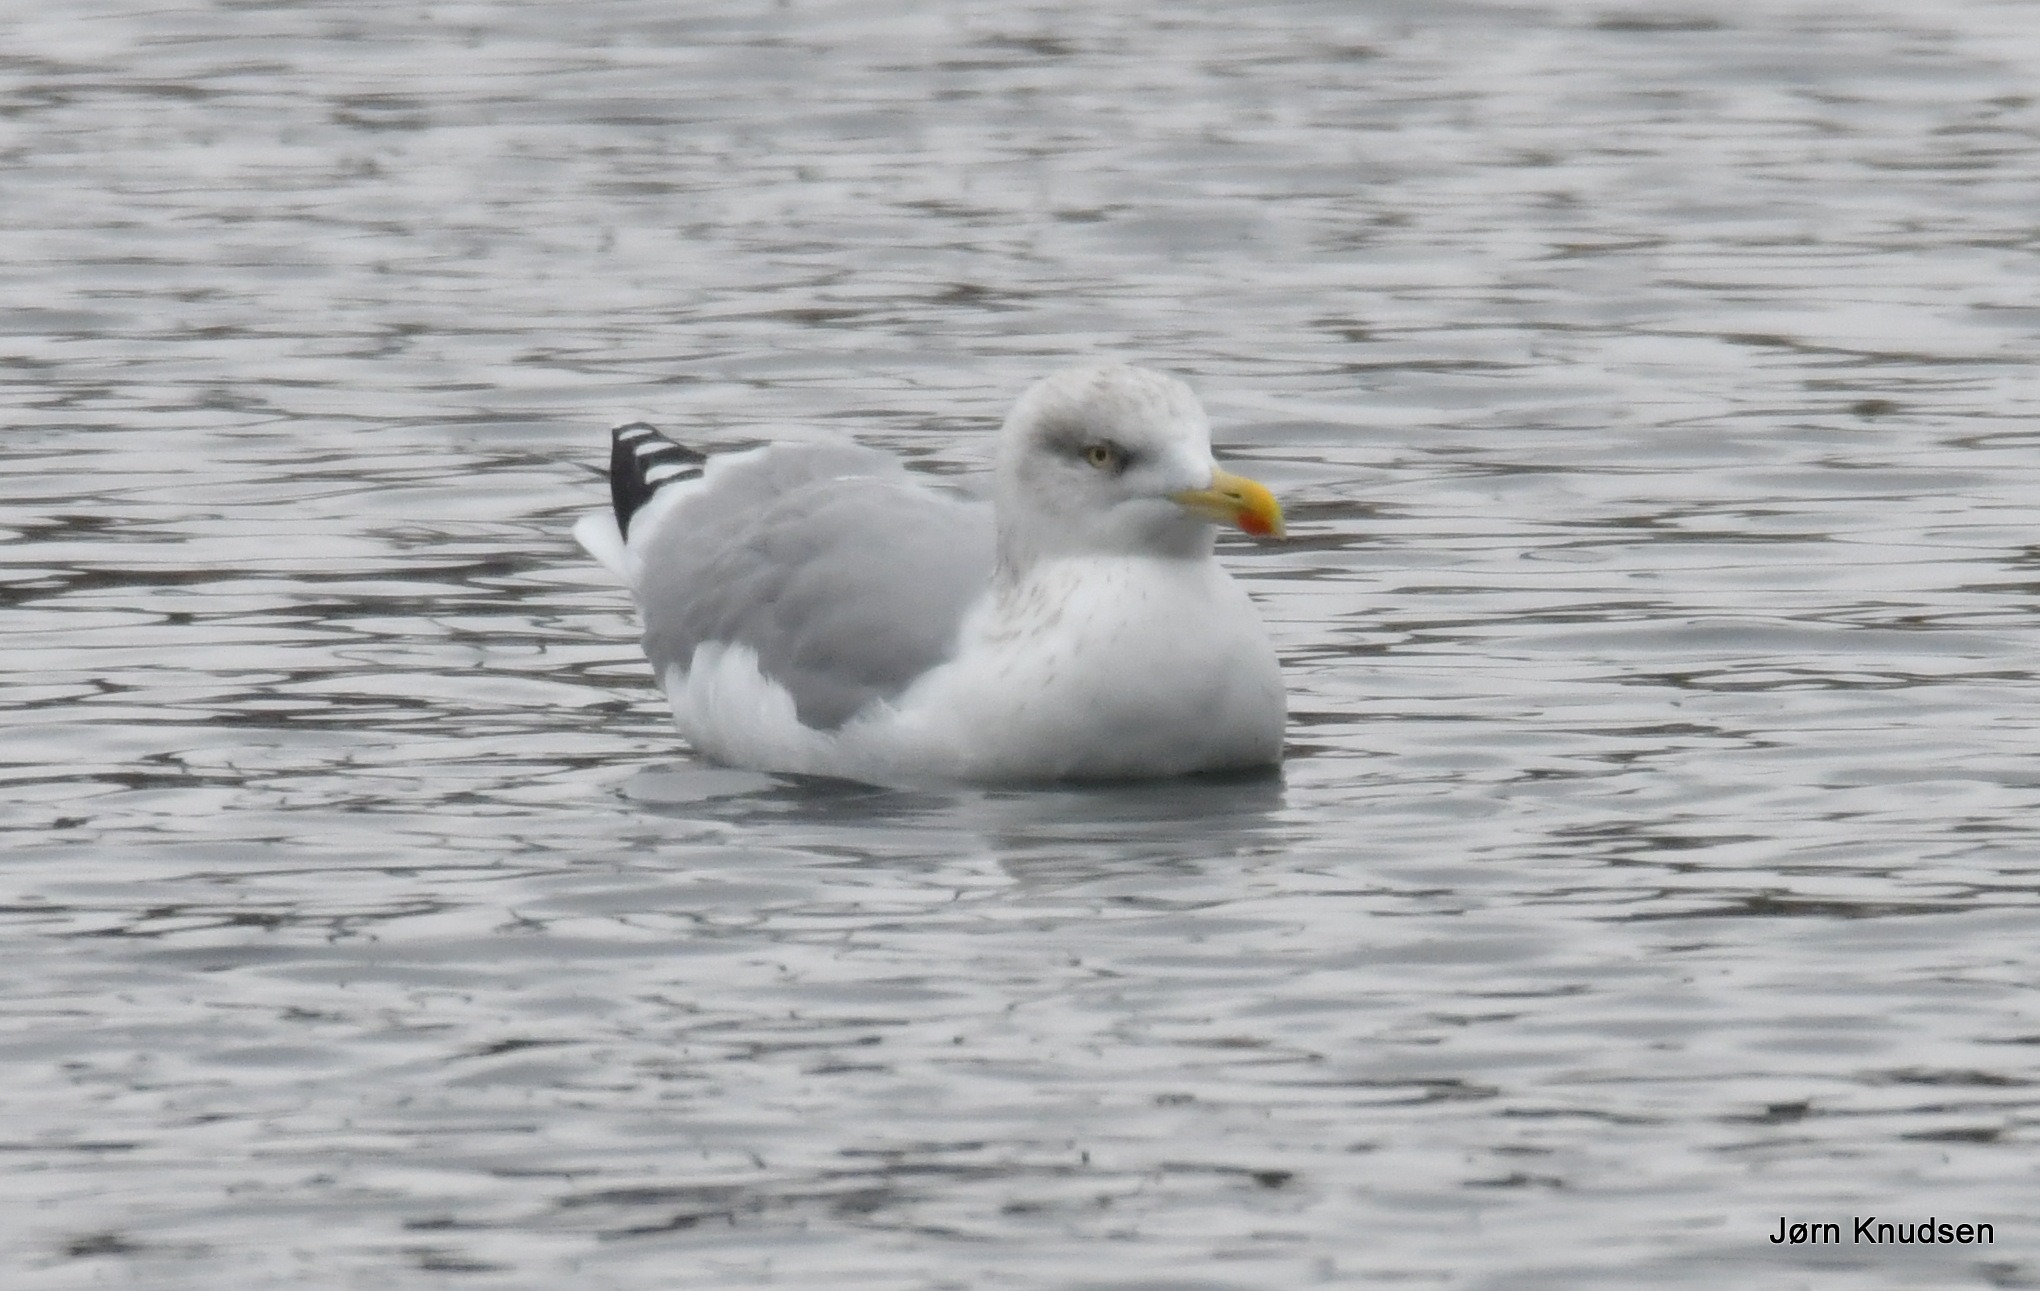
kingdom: Animalia
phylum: Chordata
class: Aves
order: Charadriiformes
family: Laridae
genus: Larus
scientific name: Larus argentatus
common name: Sølvmåge
